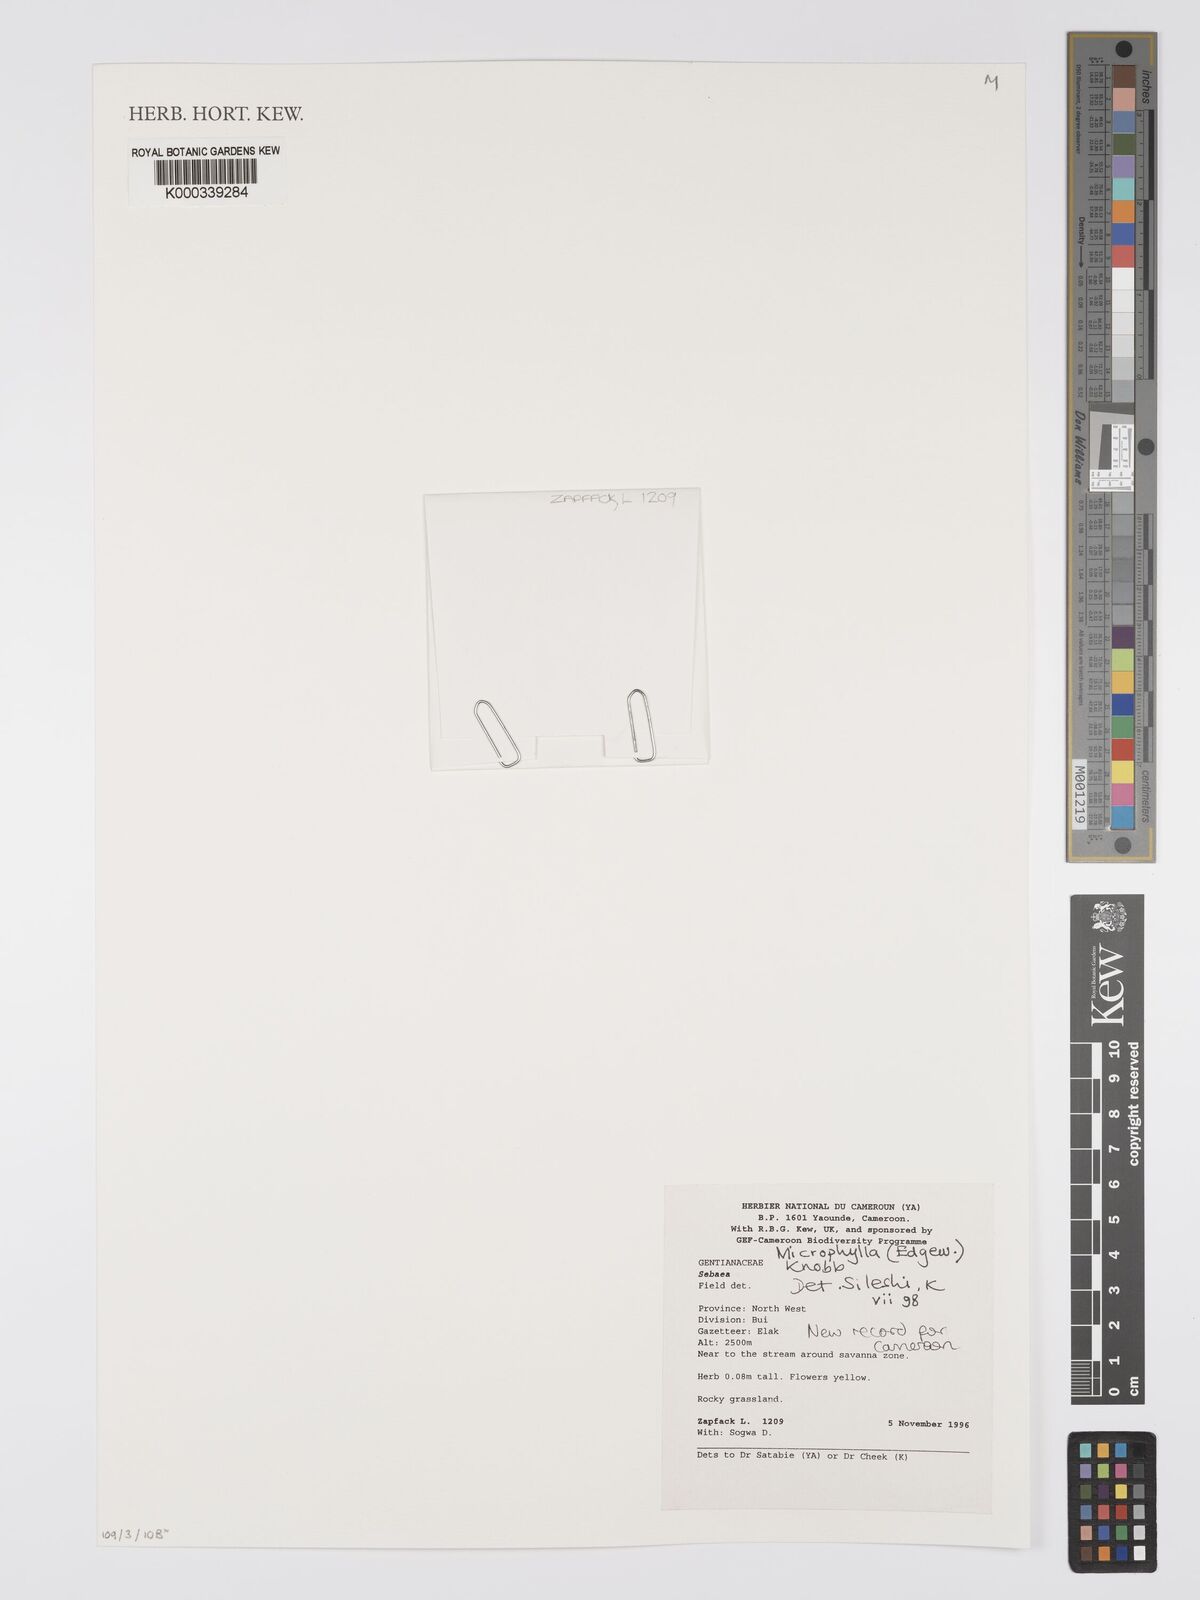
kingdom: Plantae
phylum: Tracheophyta
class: Magnoliopsida
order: Gentianales
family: Gentianaceae
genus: Sebaea
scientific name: Sebaea microphylla
